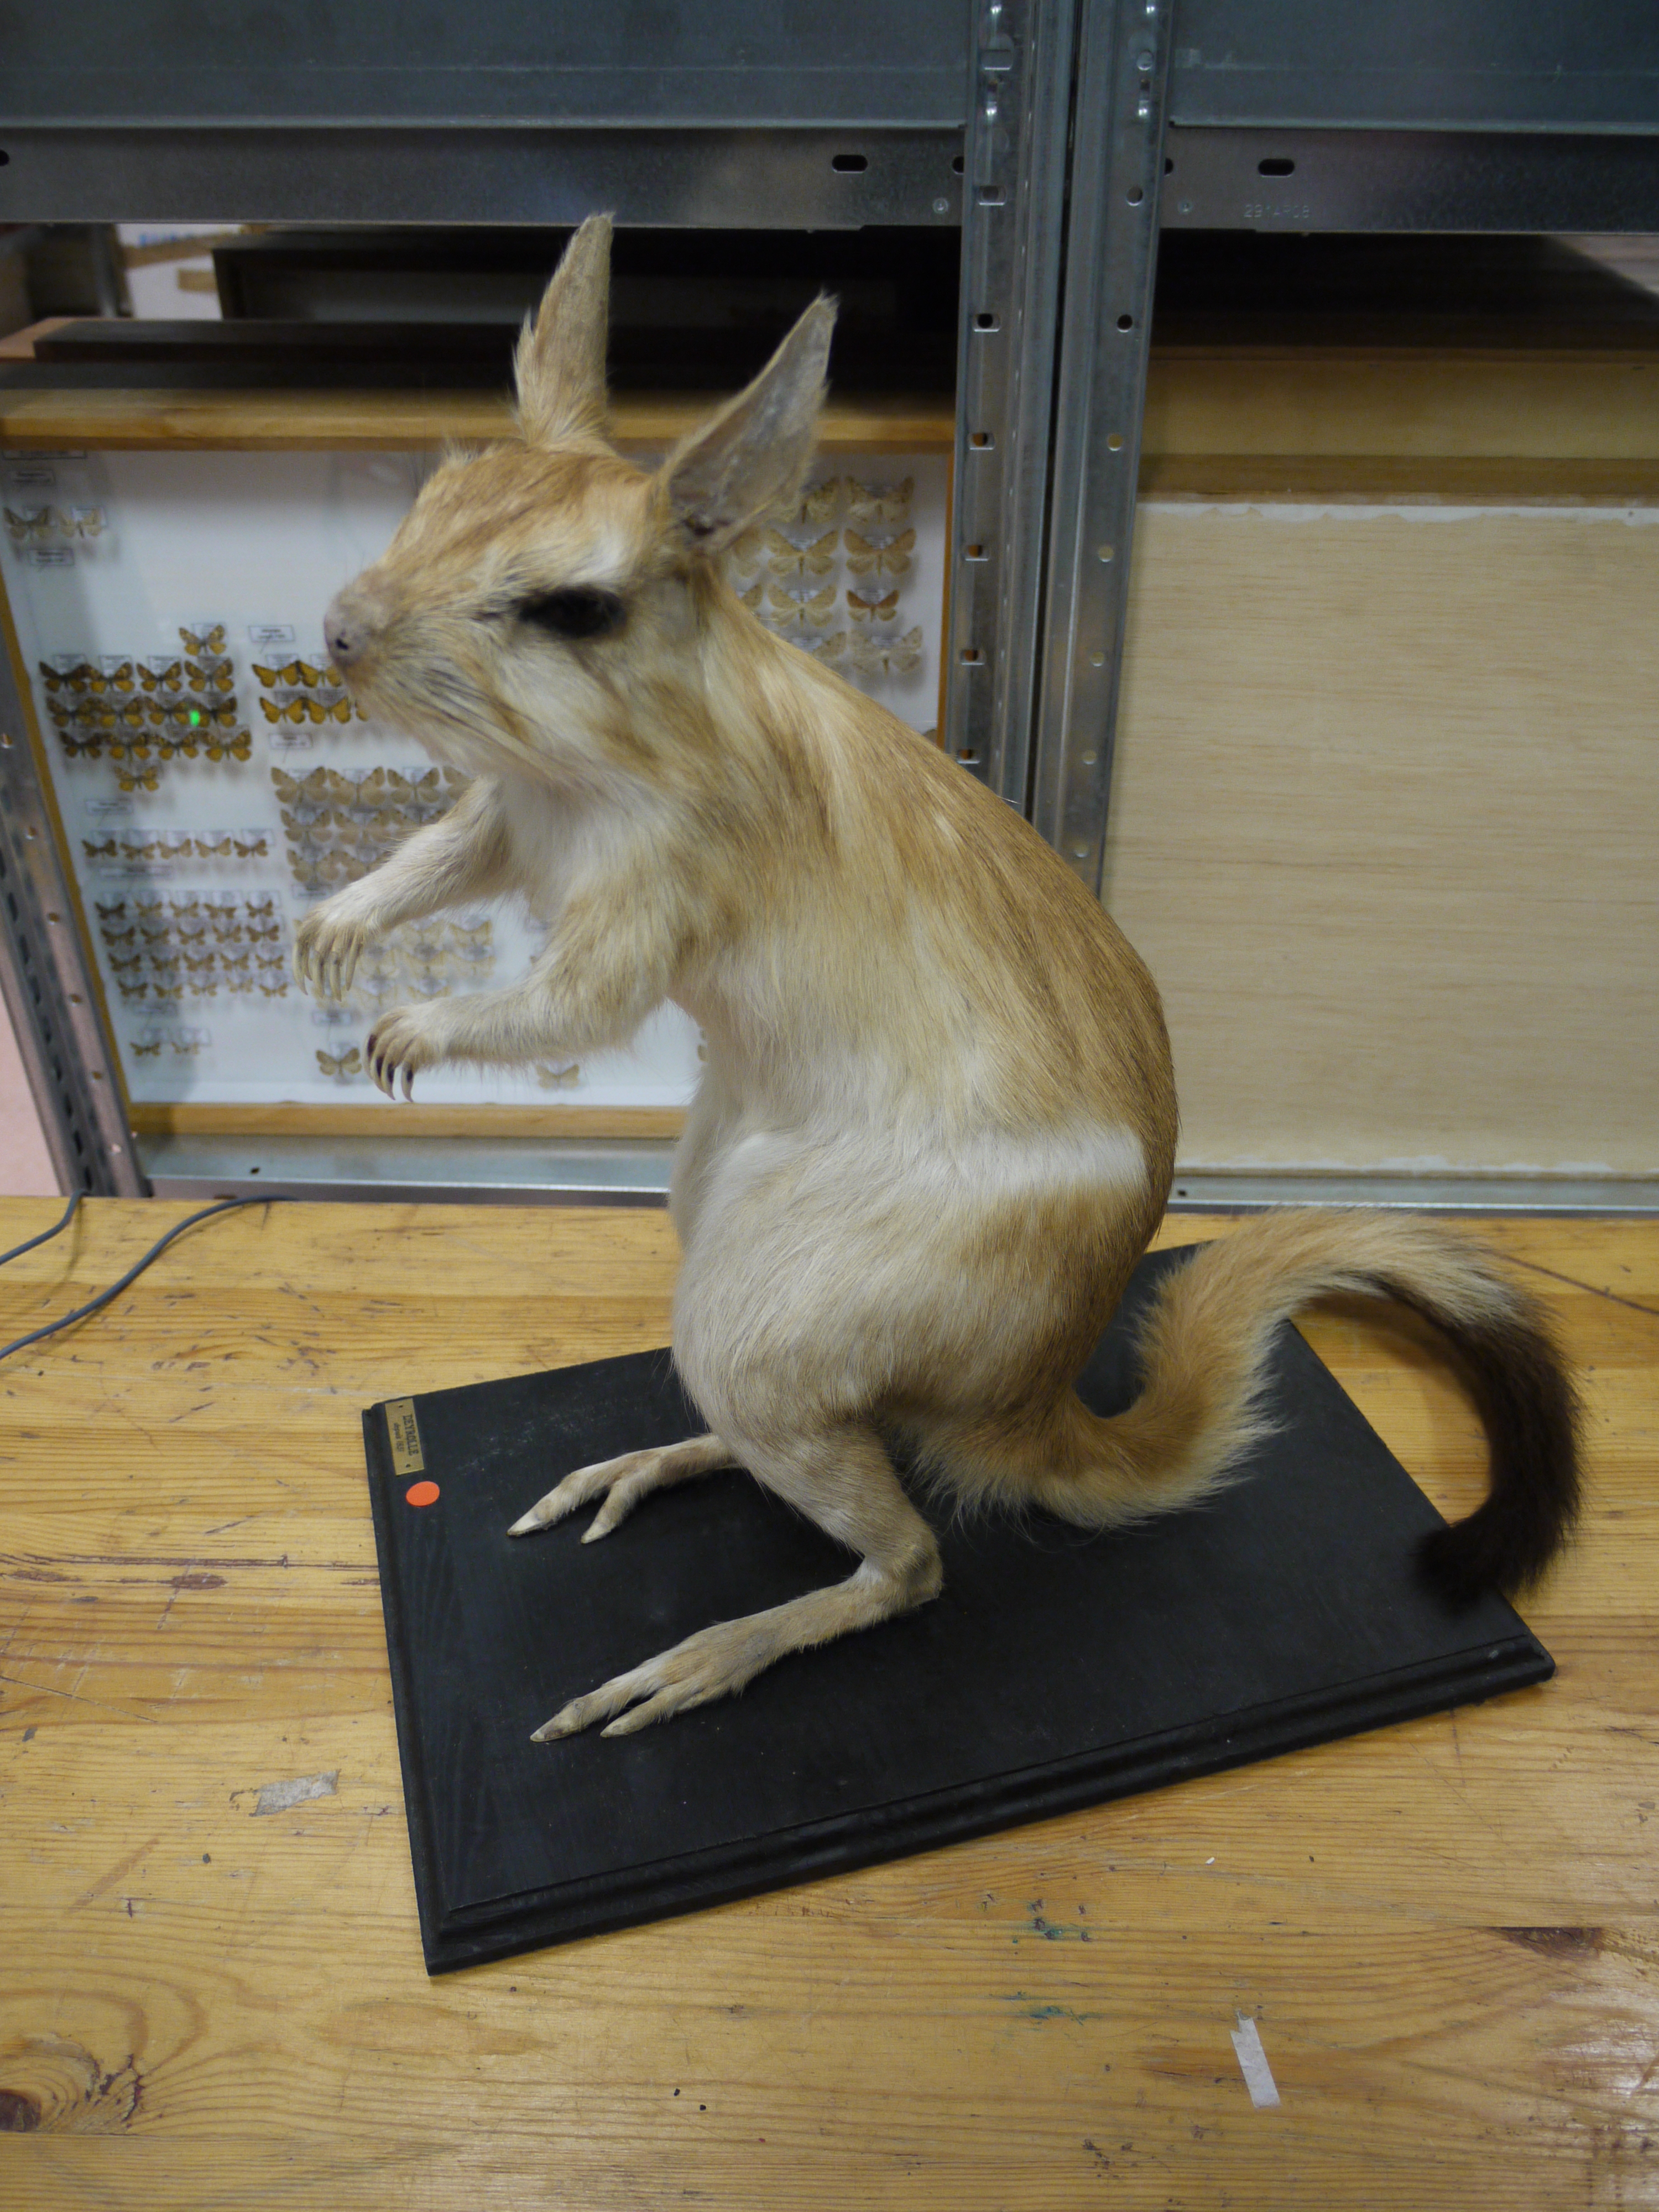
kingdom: Animalia
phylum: Chordata
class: Mammalia
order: Rodentia
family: Pedetidae
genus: Pedetes
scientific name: Pedetes capensis
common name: South african spring hare
